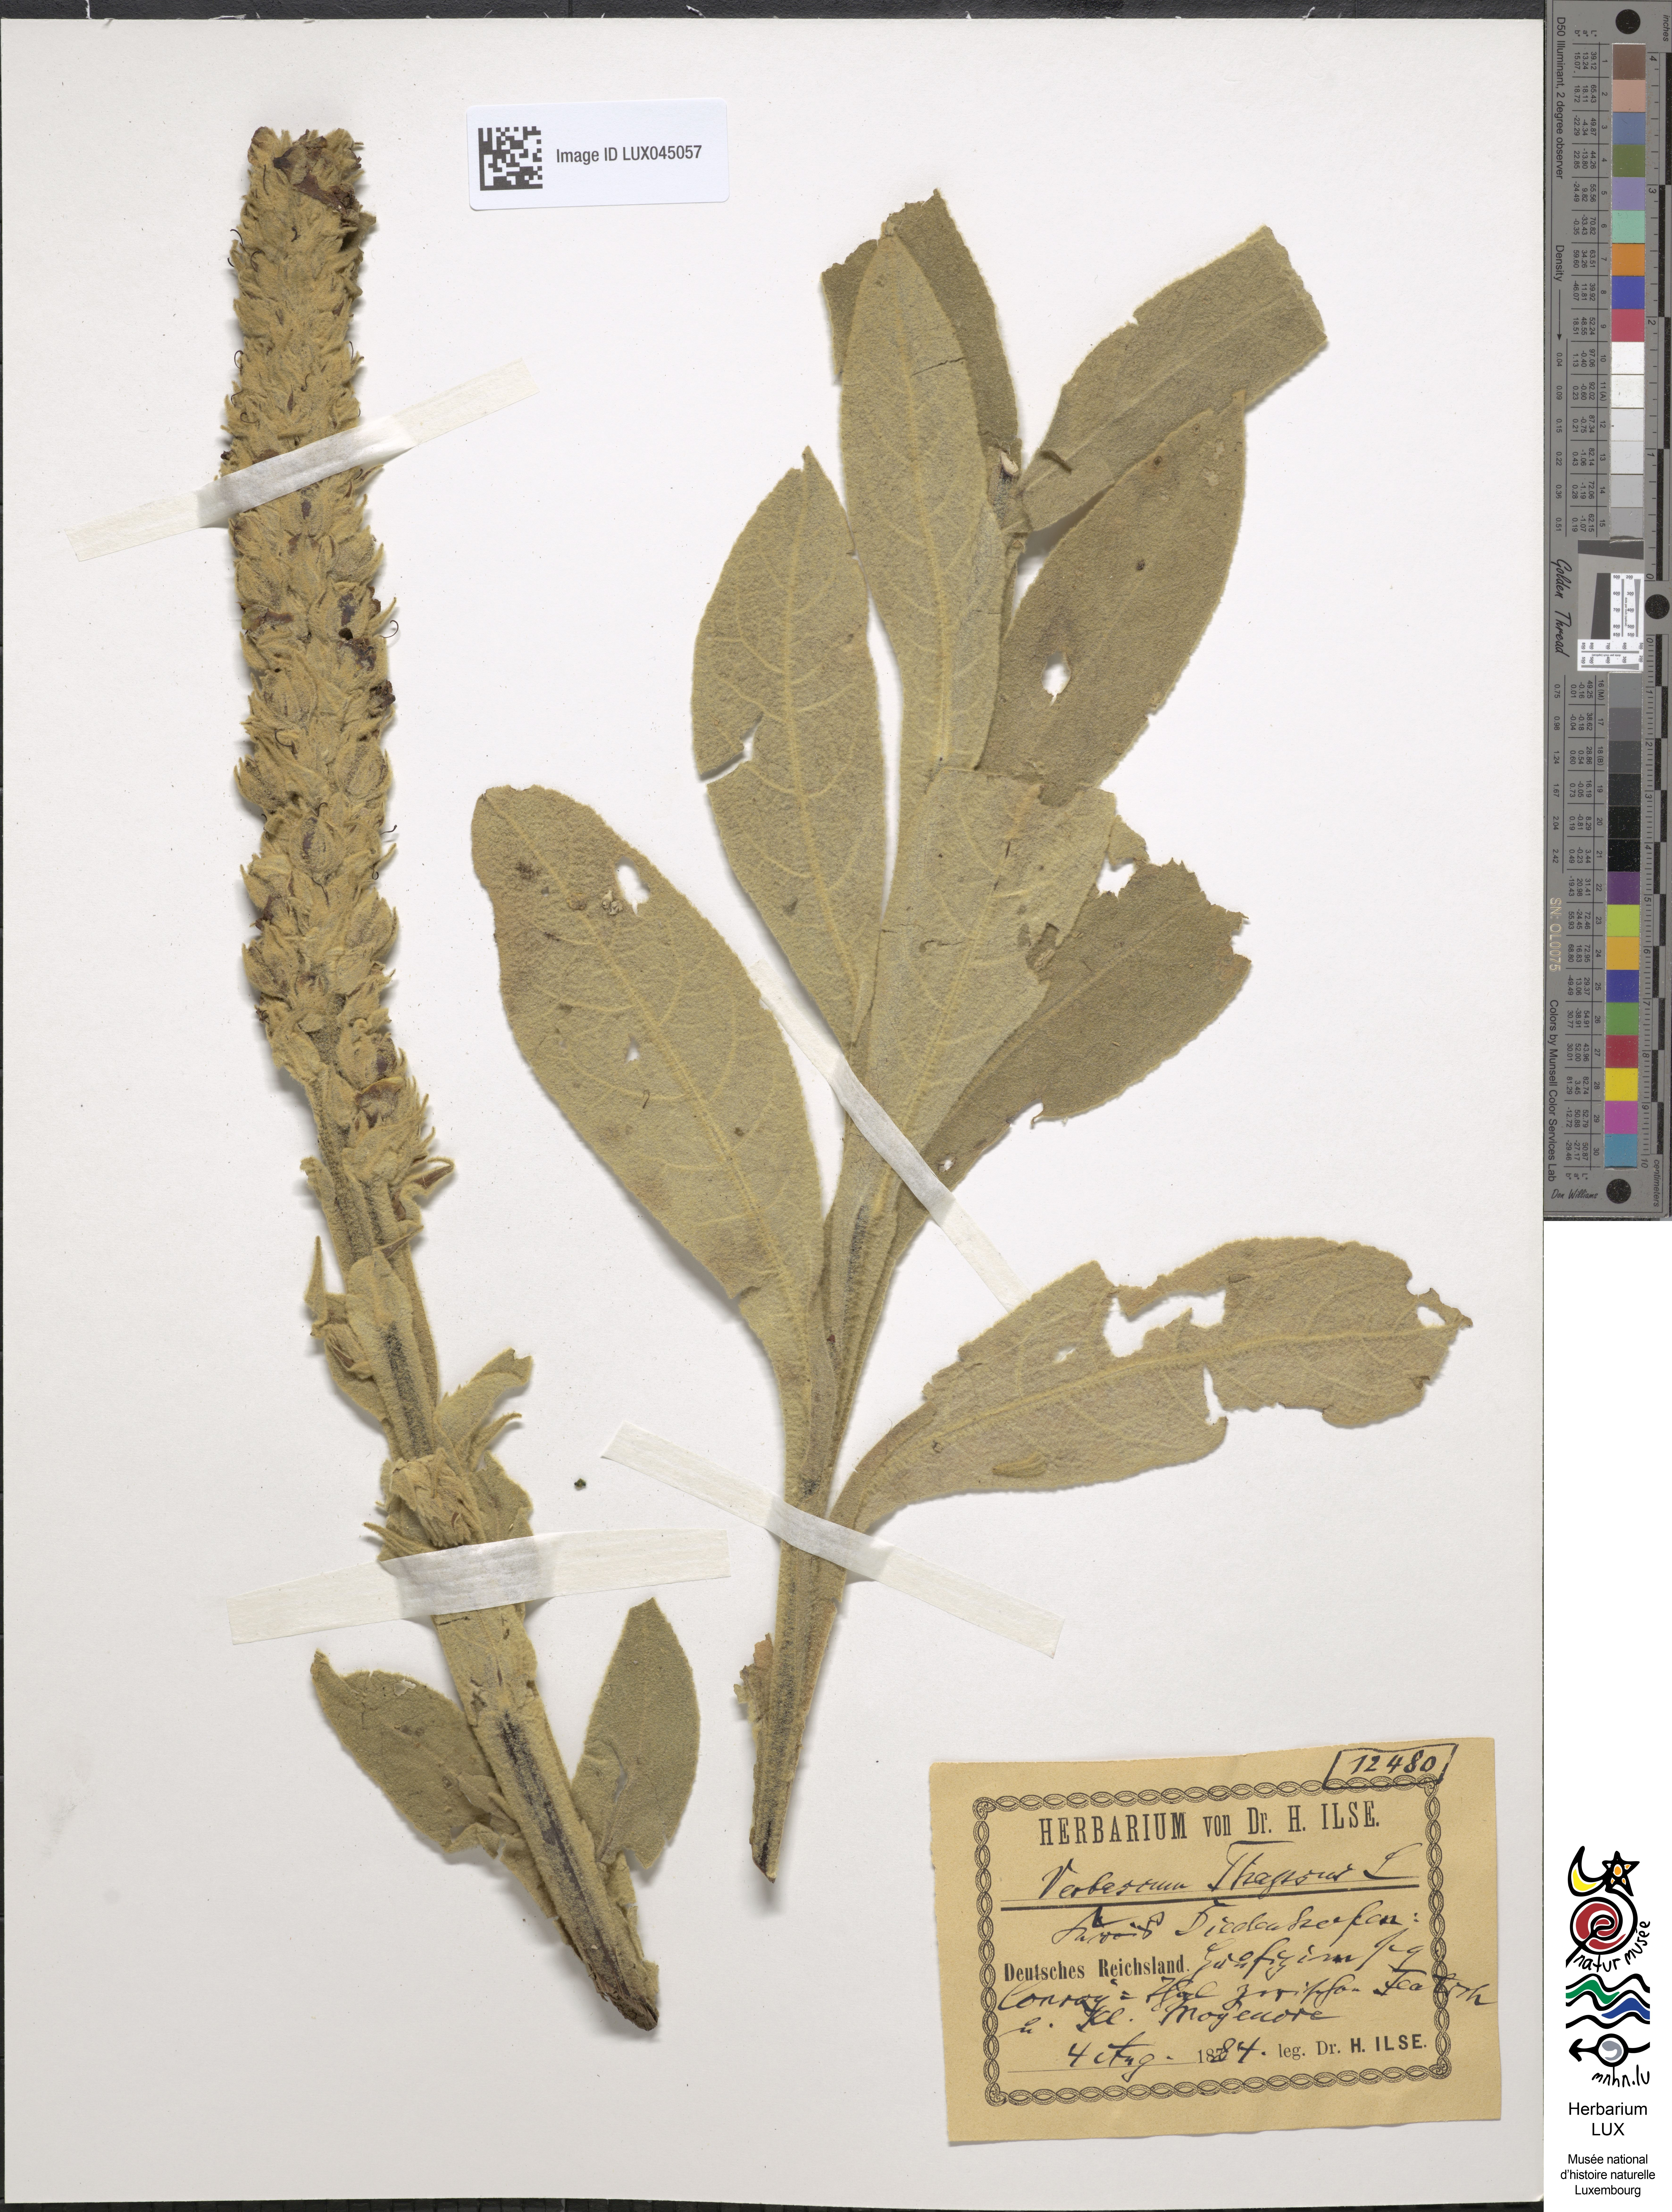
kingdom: Plantae
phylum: Tracheophyta
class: Magnoliopsida
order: Lamiales
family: Scrophulariaceae
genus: Verbascum
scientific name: Verbascum thapsus
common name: Common mullein
